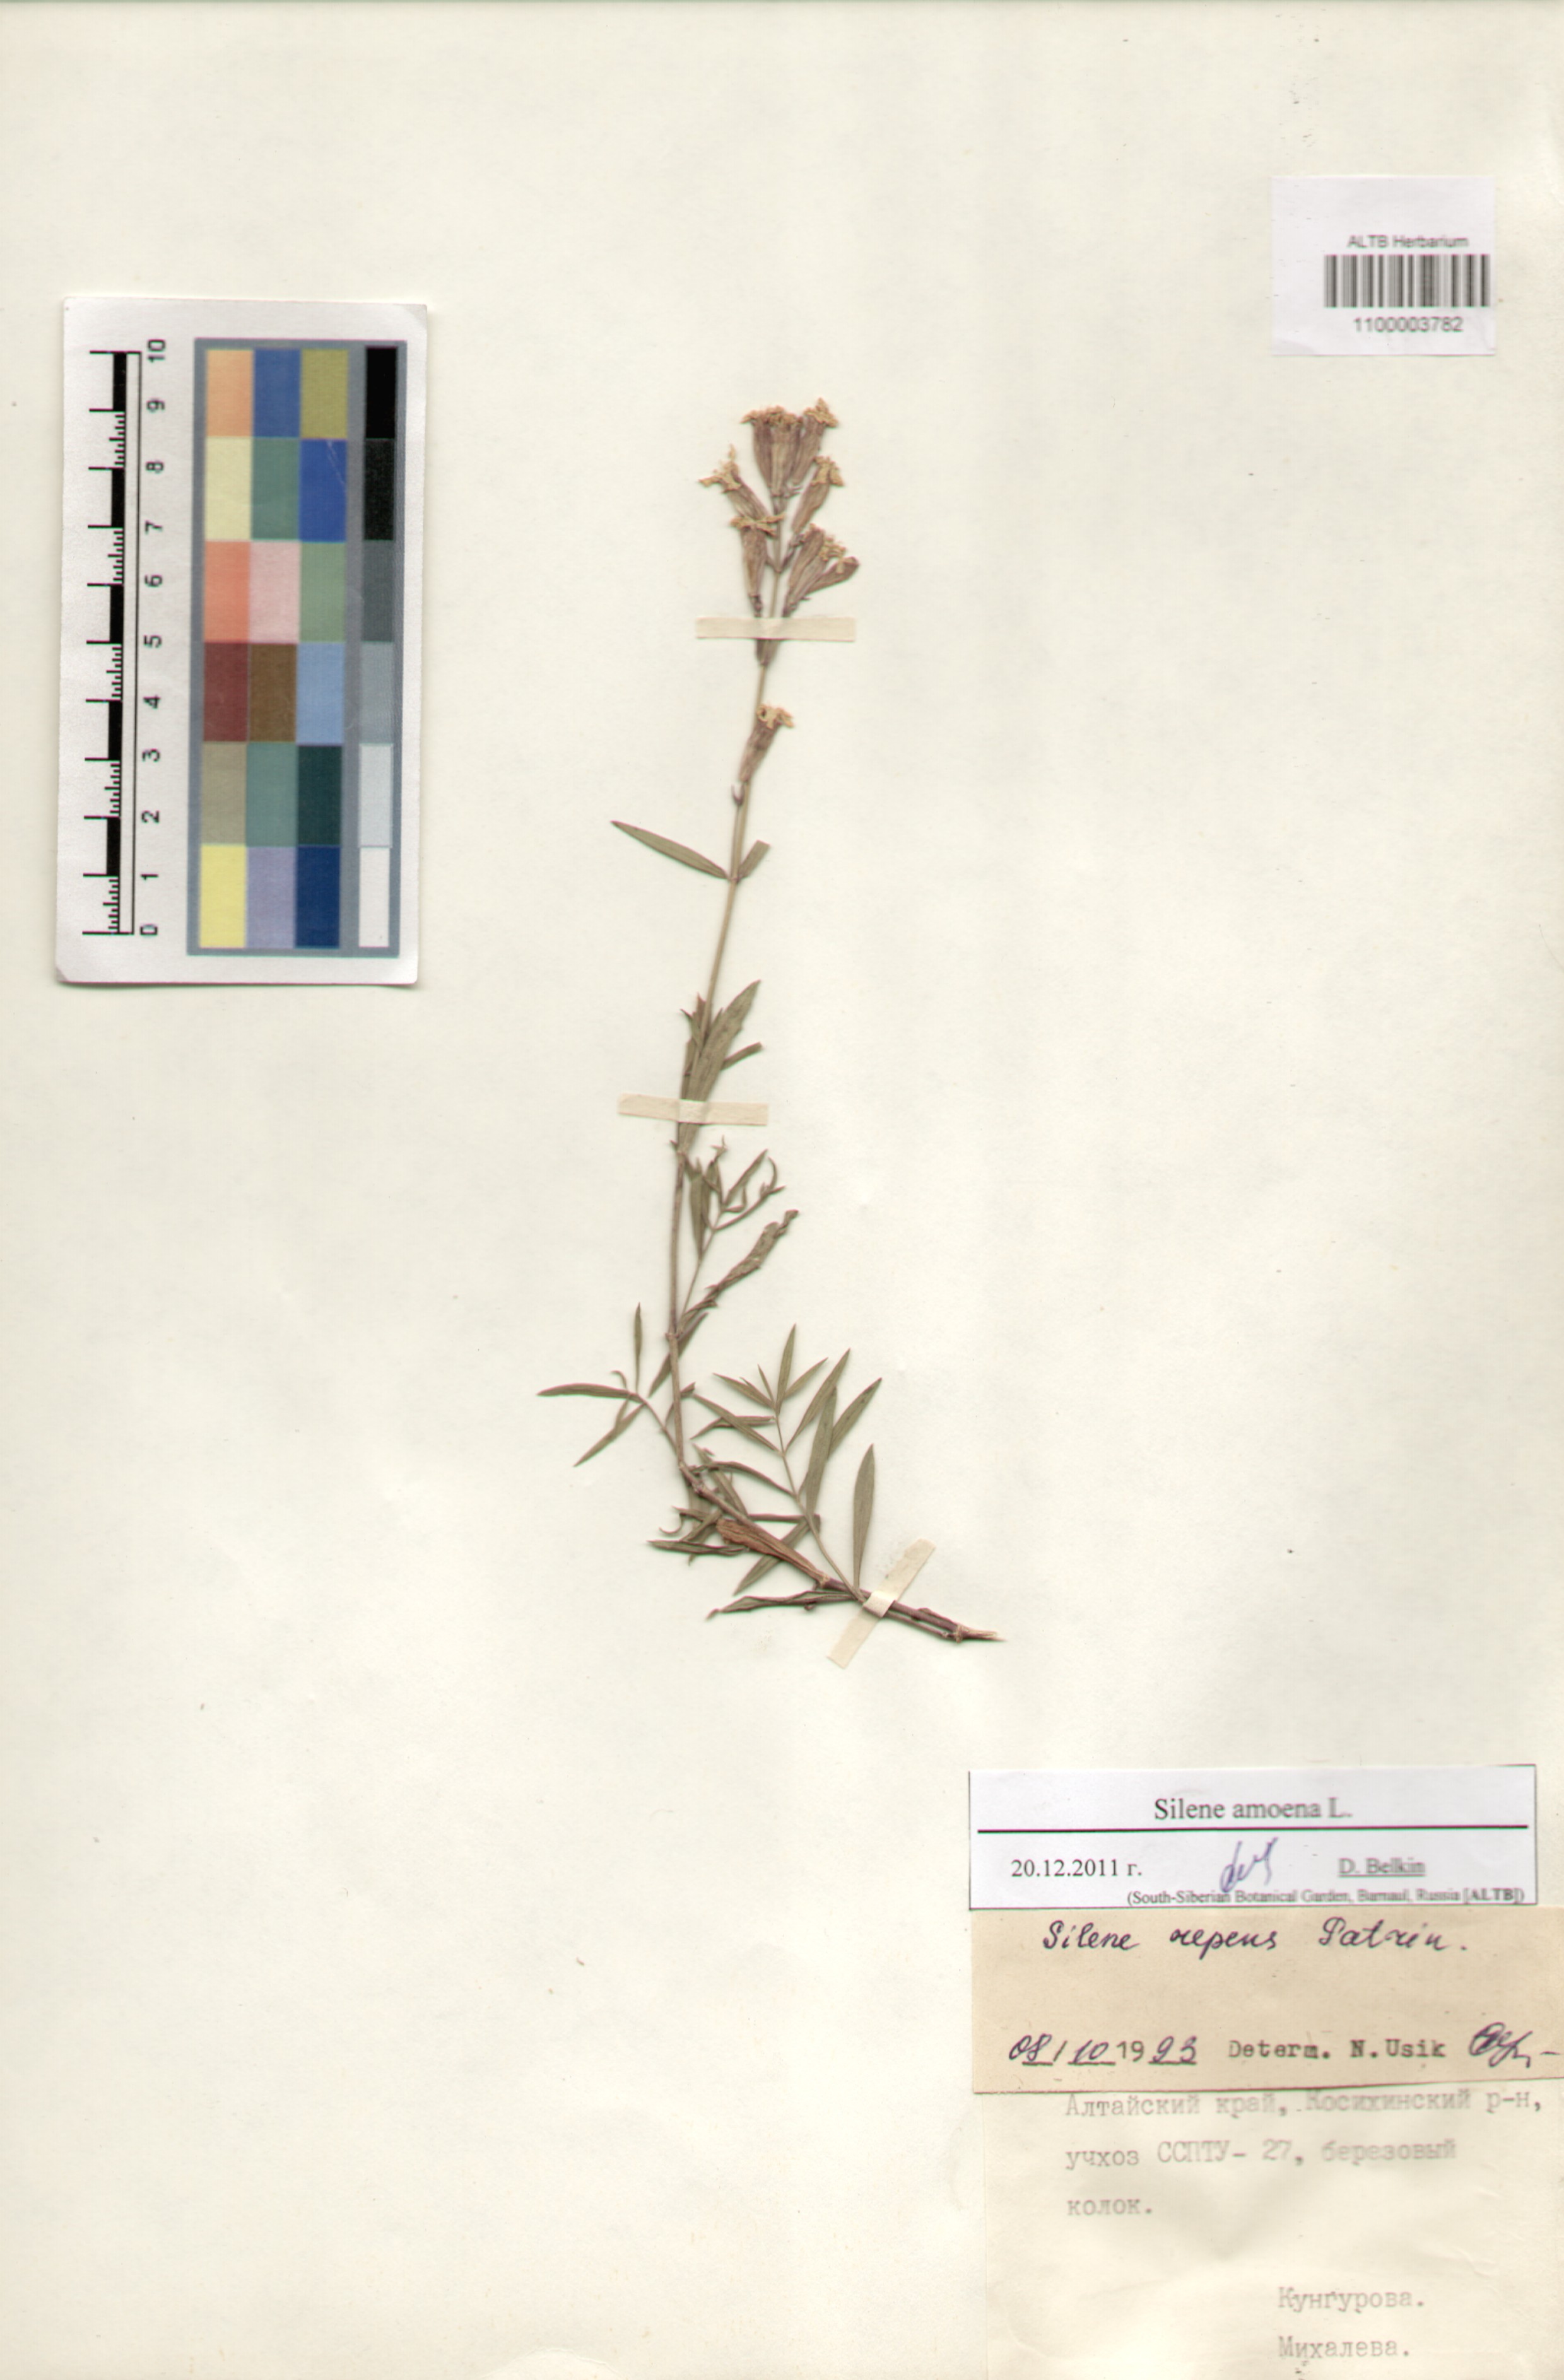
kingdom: Plantae
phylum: Tracheophyta
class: Magnoliopsida
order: Caryophyllales
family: Caryophyllaceae
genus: Silene
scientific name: Silene amoena
